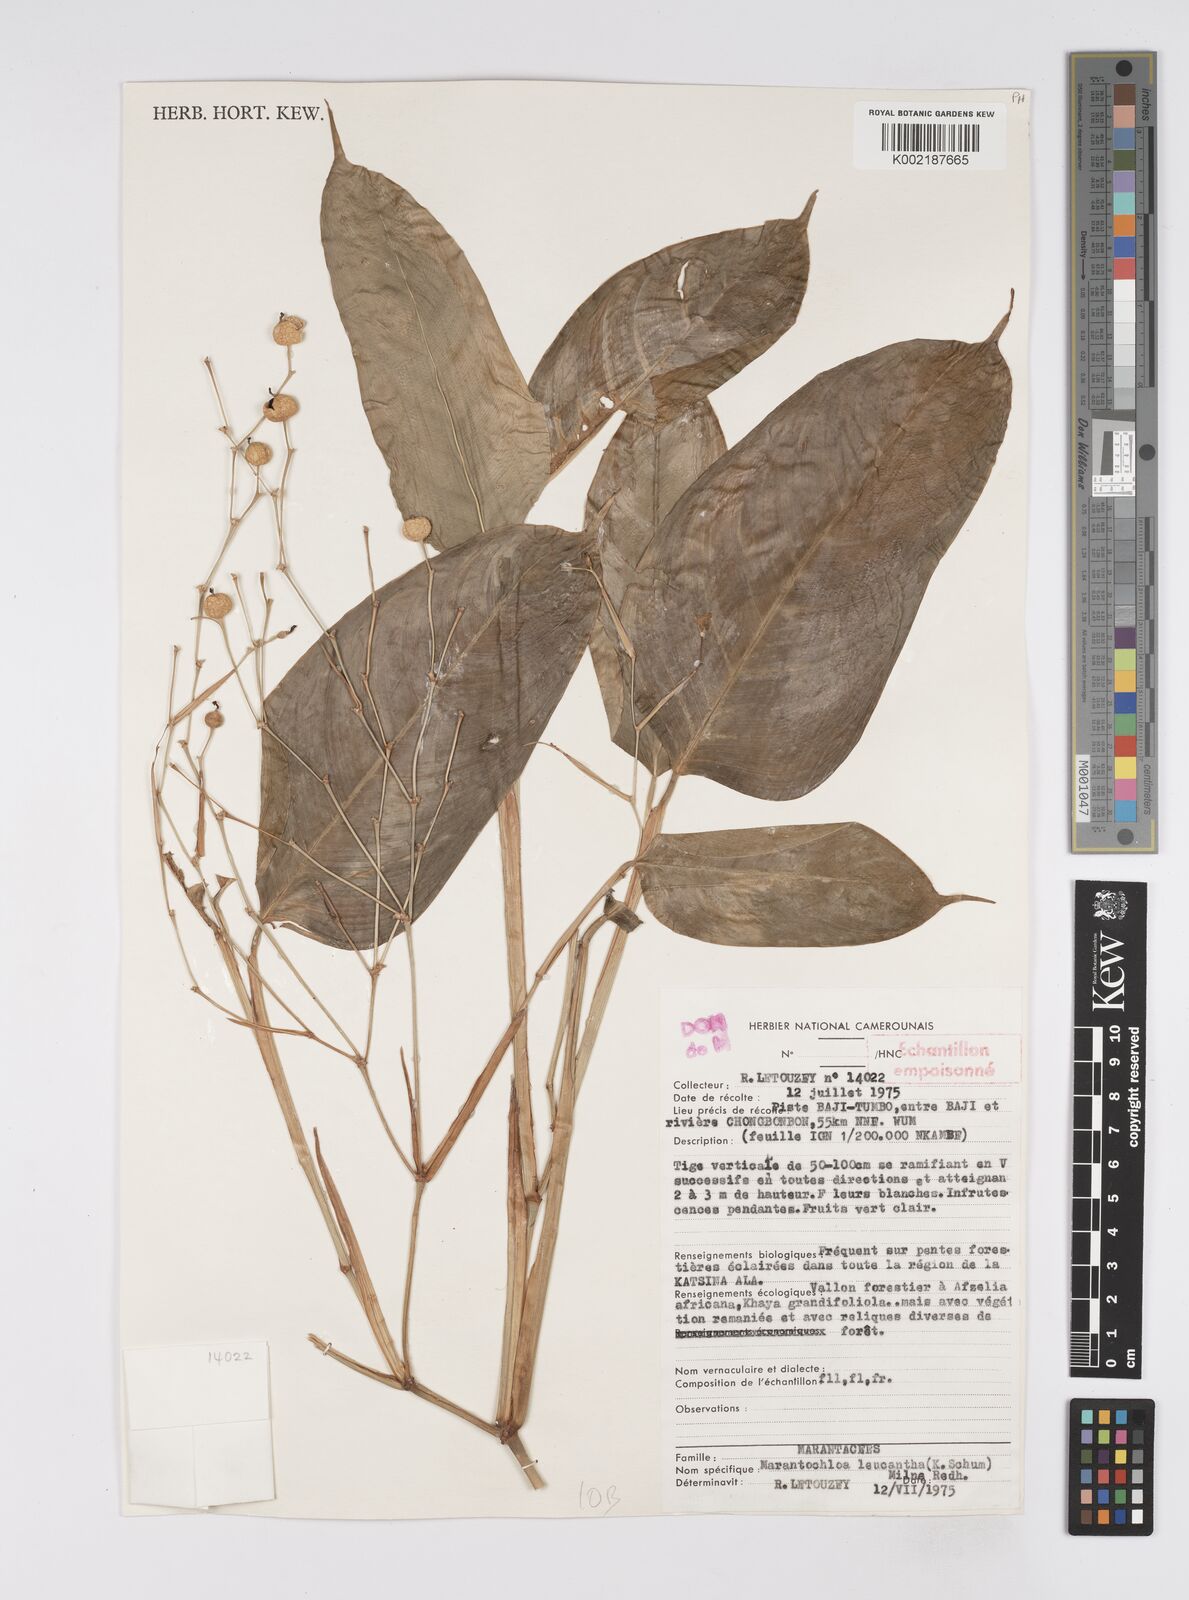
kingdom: Plantae
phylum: Tracheophyta
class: Liliopsida
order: Zingiberales
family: Marantaceae
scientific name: Marantaceae
